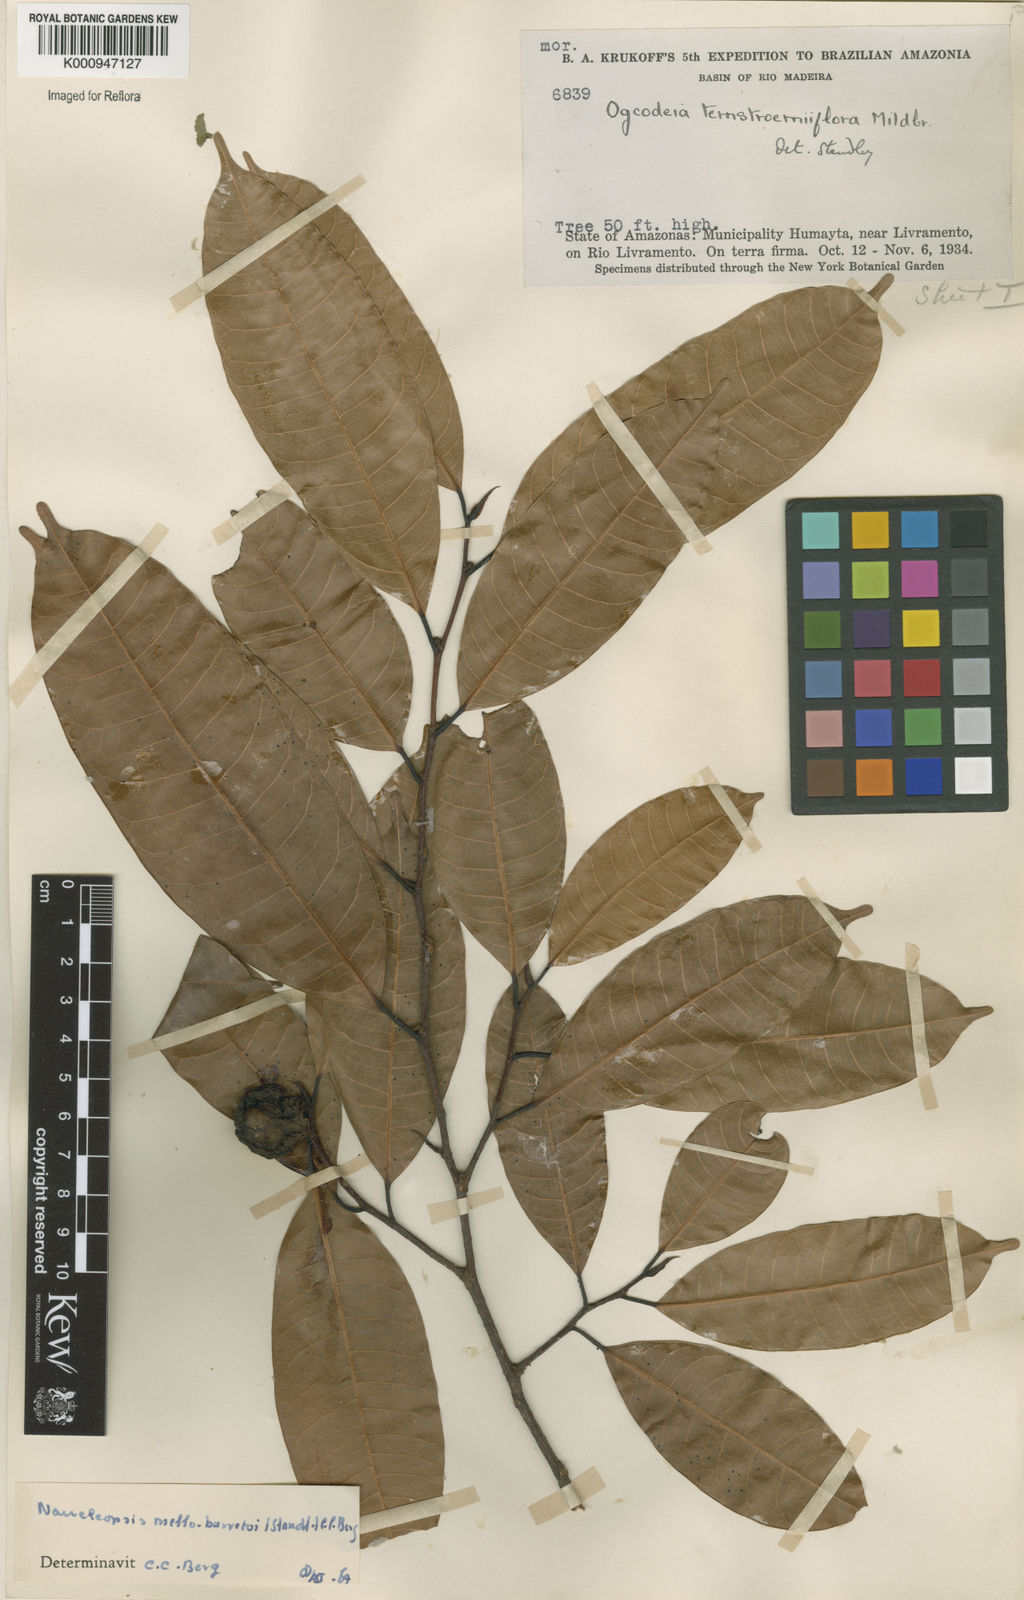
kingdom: Plantae
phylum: Tracheophyta
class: Magnoliopsida
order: Rosales
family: Moraceae
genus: Naucleopsis
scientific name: Naucleopsis oblongifolia
